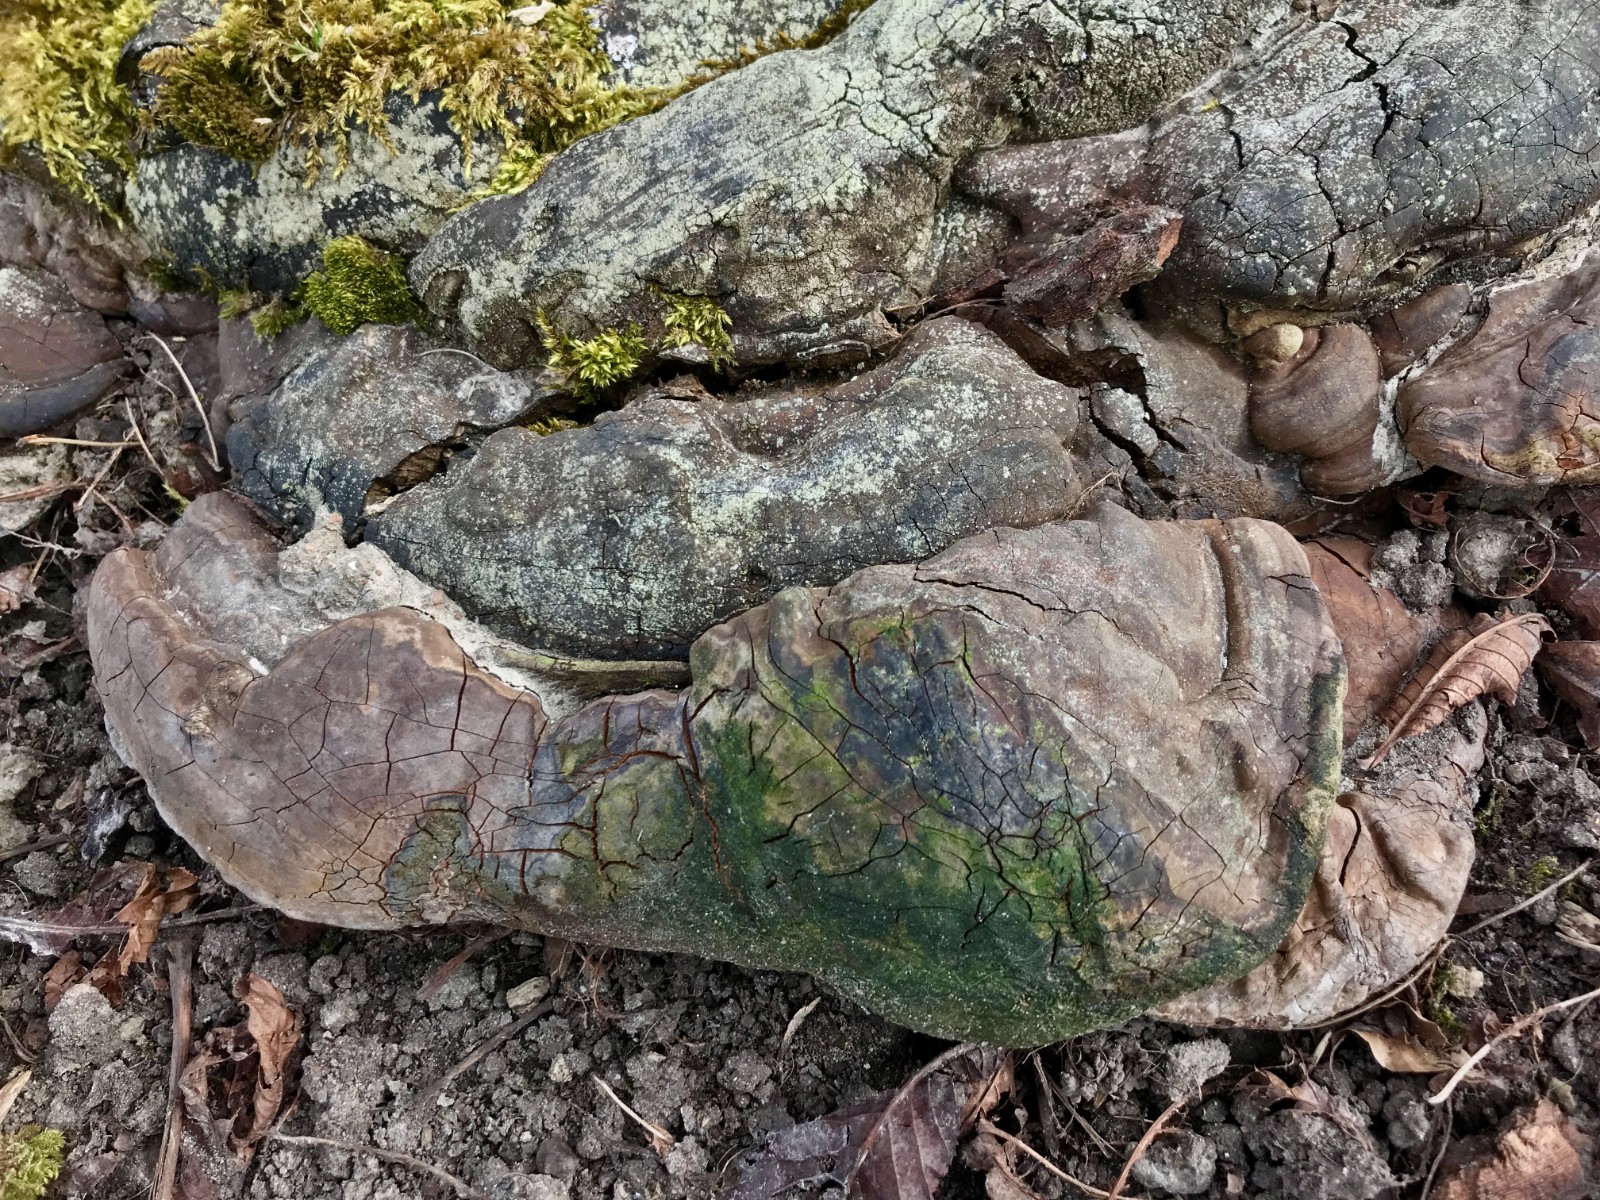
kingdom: Fungi
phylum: Basidiomycota
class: Agaricomycetes
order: Polyporales
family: Polyporaceae
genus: Ganoderma
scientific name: Ganoderma adspersum
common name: grov lakporesvamp
